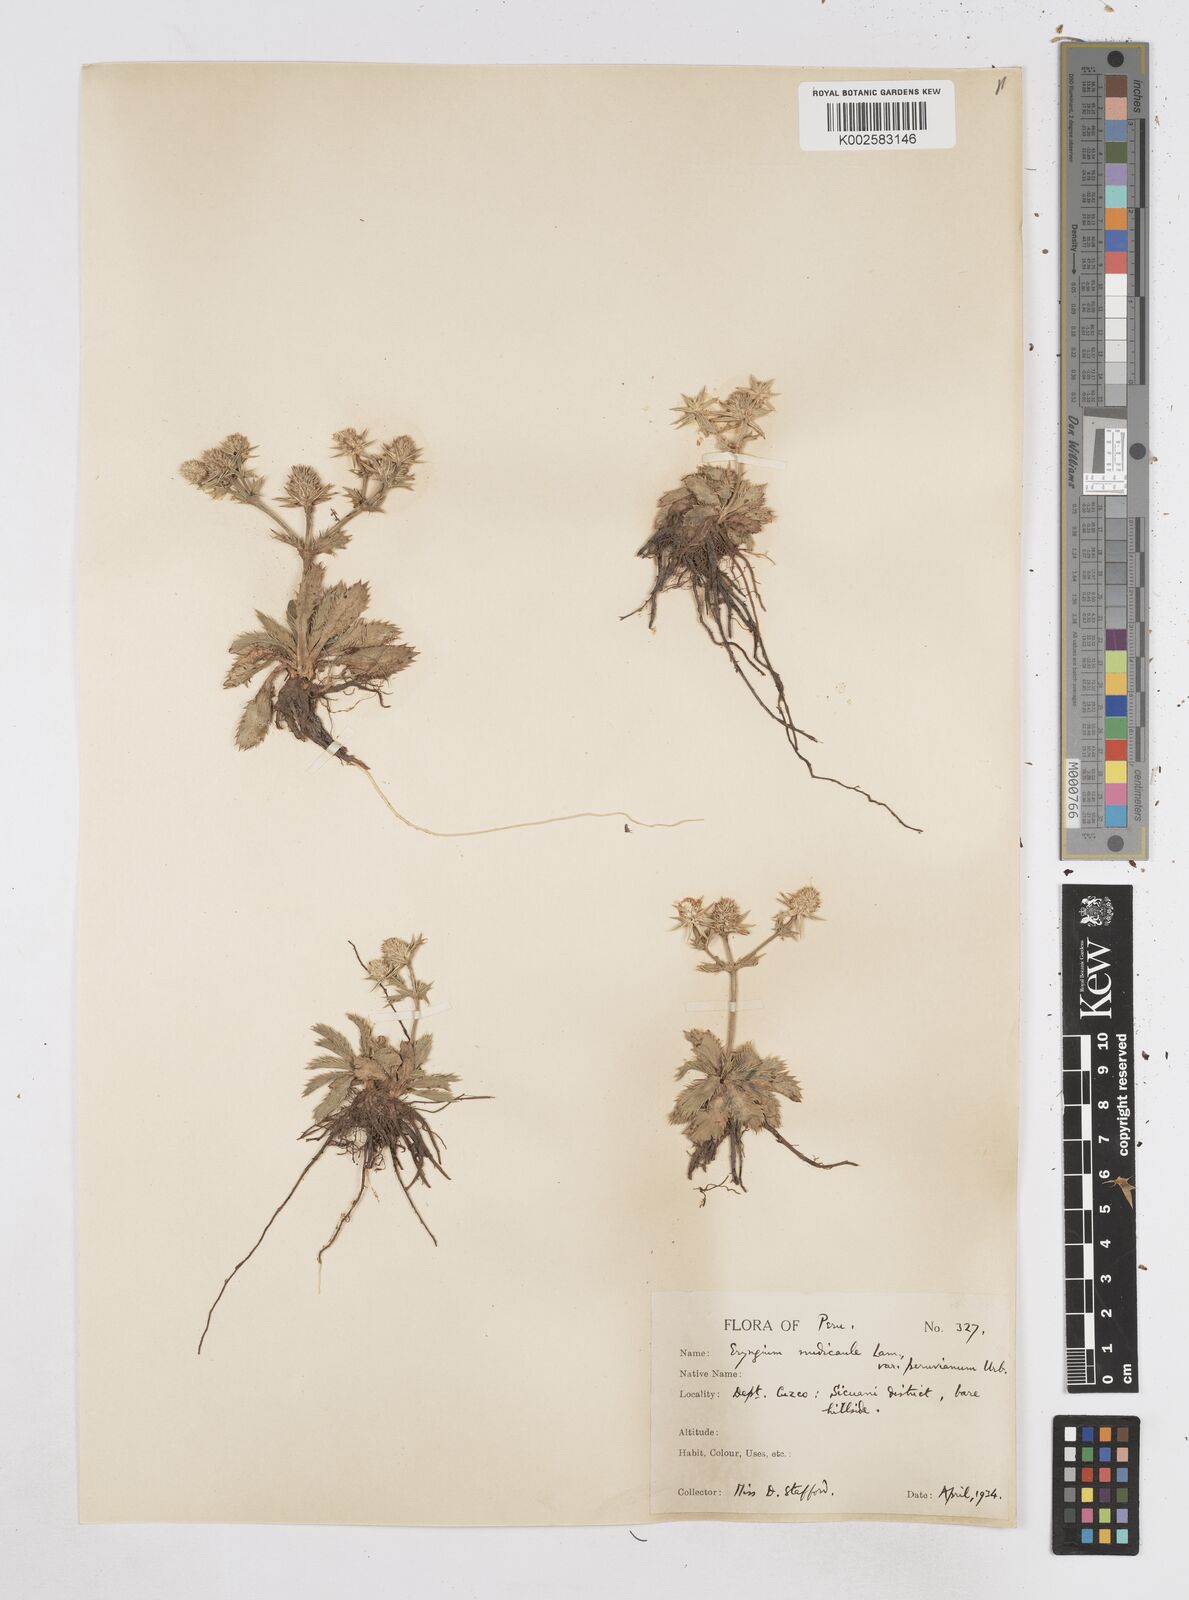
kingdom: Plantae
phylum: Tracheophyta
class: Magnoliopsida
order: Apiales
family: Apiaceae
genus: Eryngium
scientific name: Eryngium nudicaule
